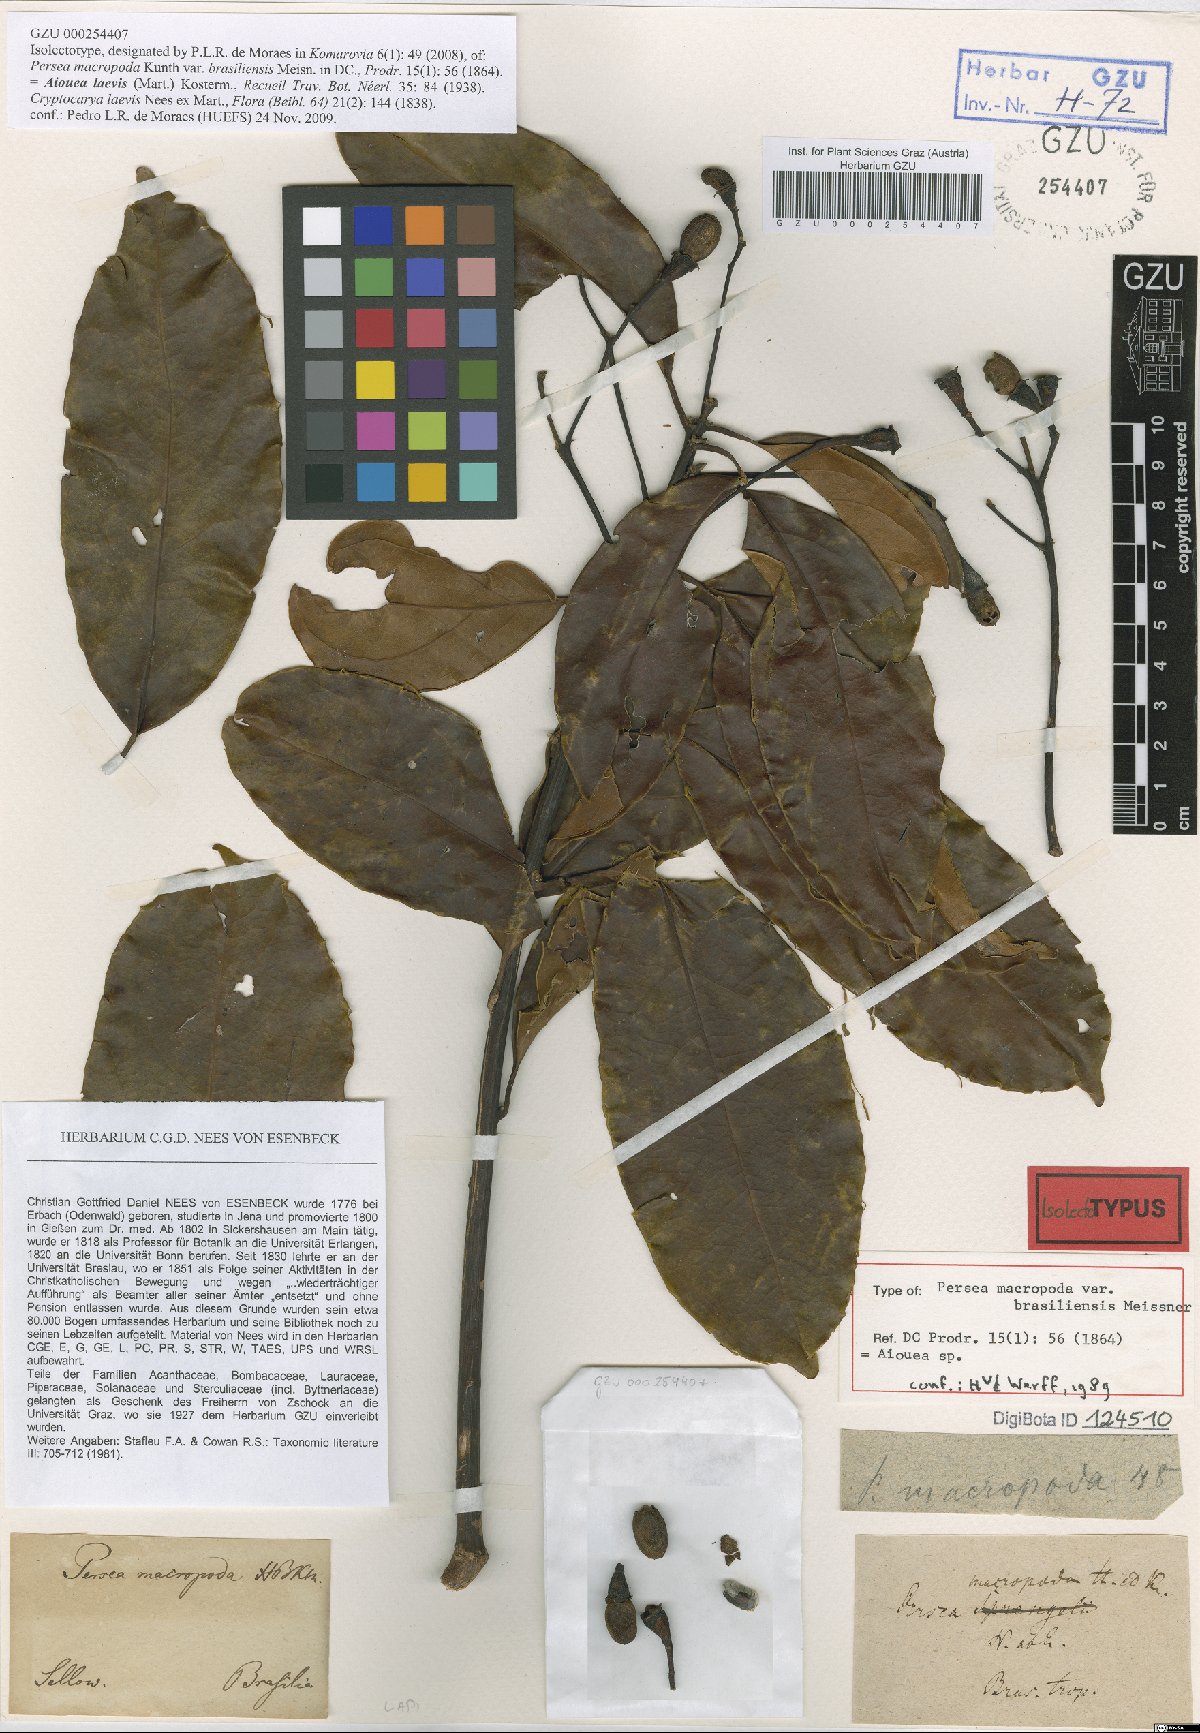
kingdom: Plantae
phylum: Tracheophyta
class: Magnoliopsida
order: Laurales
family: Lauraceae
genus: Aiouea
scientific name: Aiouea laevis
